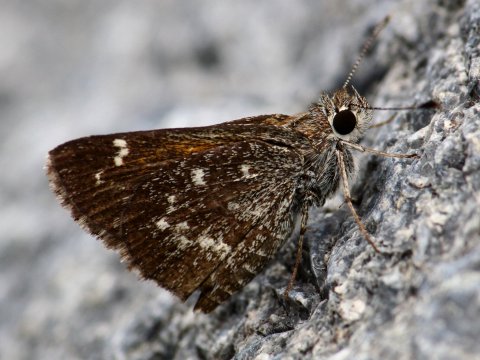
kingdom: Animalia
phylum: Arthropoda
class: Insecta
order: Lepidoptera
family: Hesperiidae
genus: Mastor
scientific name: Mastor aenus
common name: Bronze Roadside-Skipper
